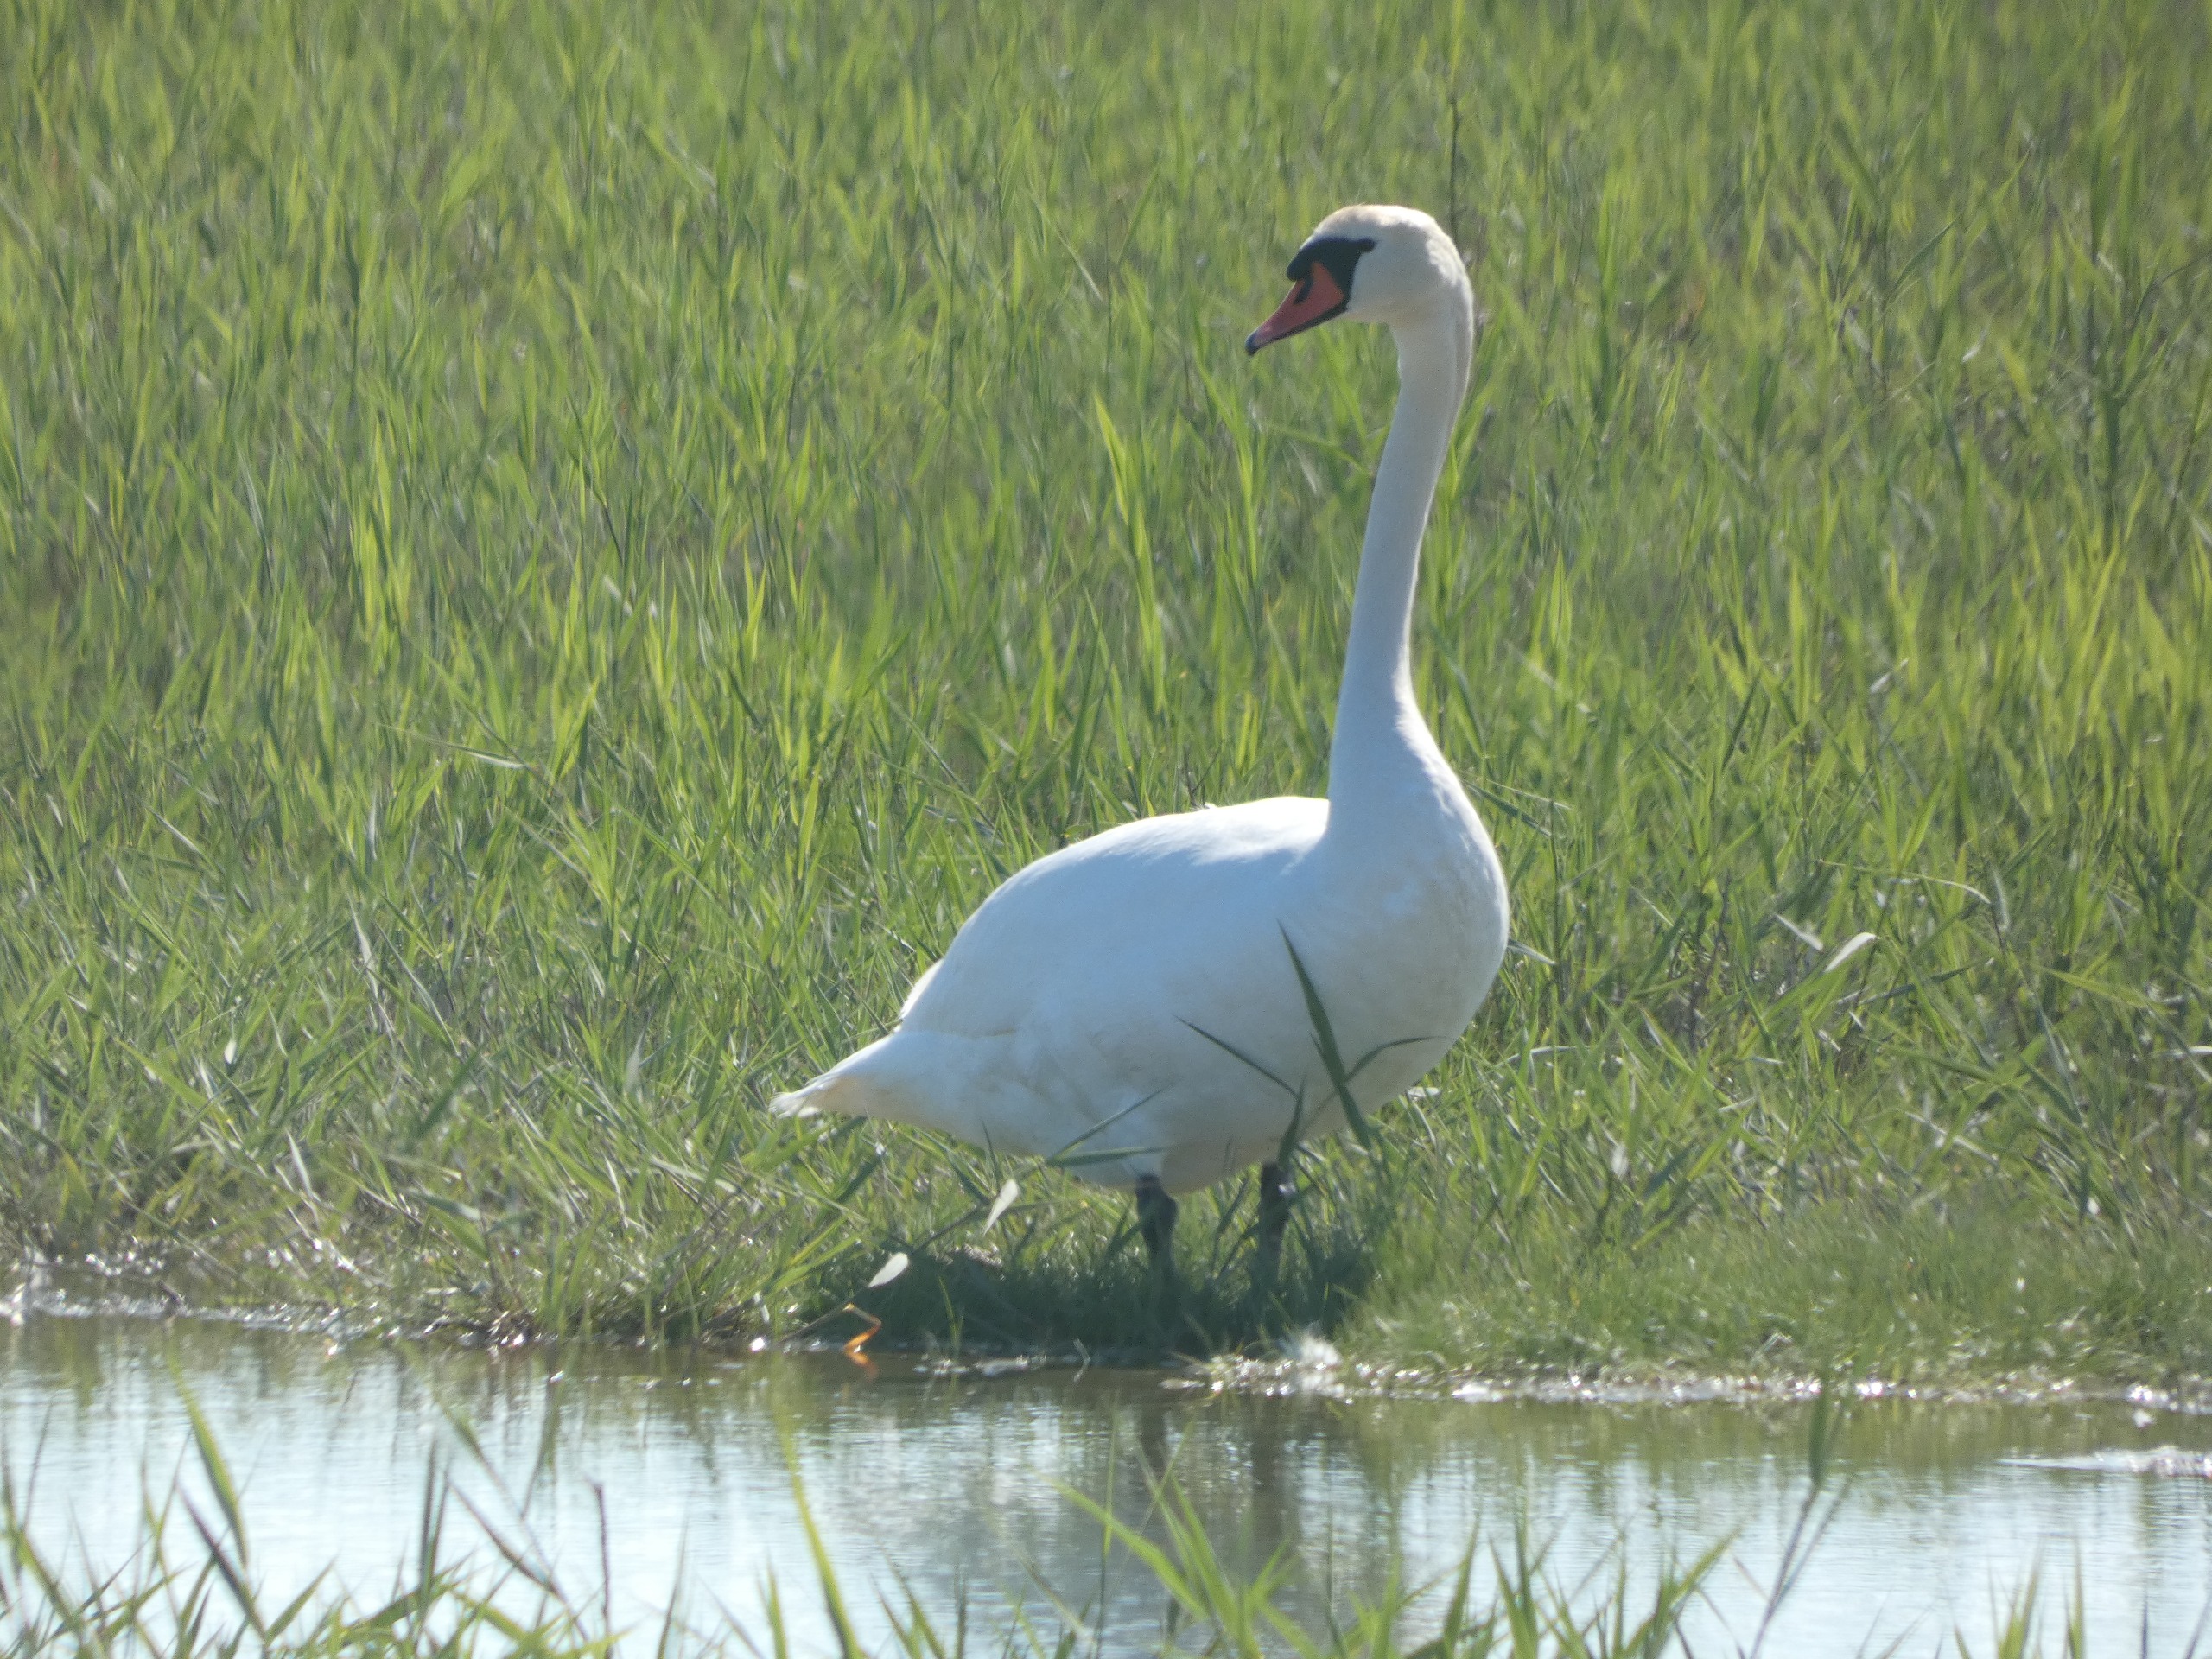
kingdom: Animalia
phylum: Chordata
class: Aves
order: Anseriformes
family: Anatidae
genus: Cygnus
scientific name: Cygnus olor
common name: Knopsvane
